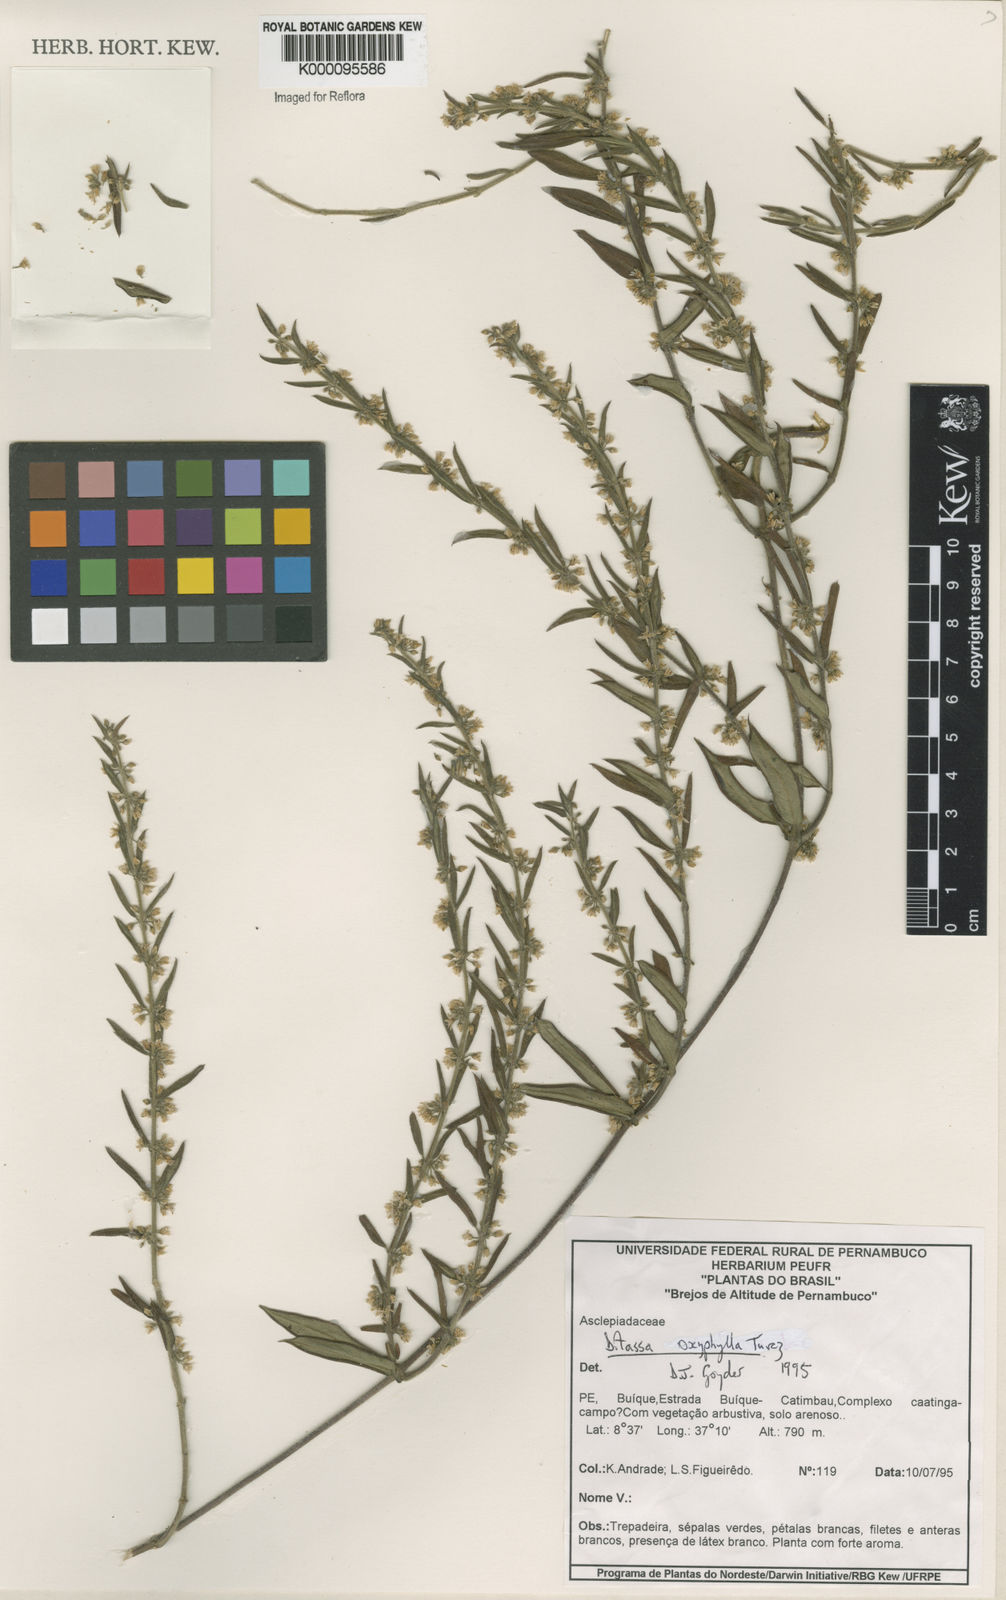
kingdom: Plantae
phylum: Tracheophyta
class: Magnoliopsida
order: Gentianales
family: Apocynaceae
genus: Ditassa
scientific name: Ditassa oxyphylla
